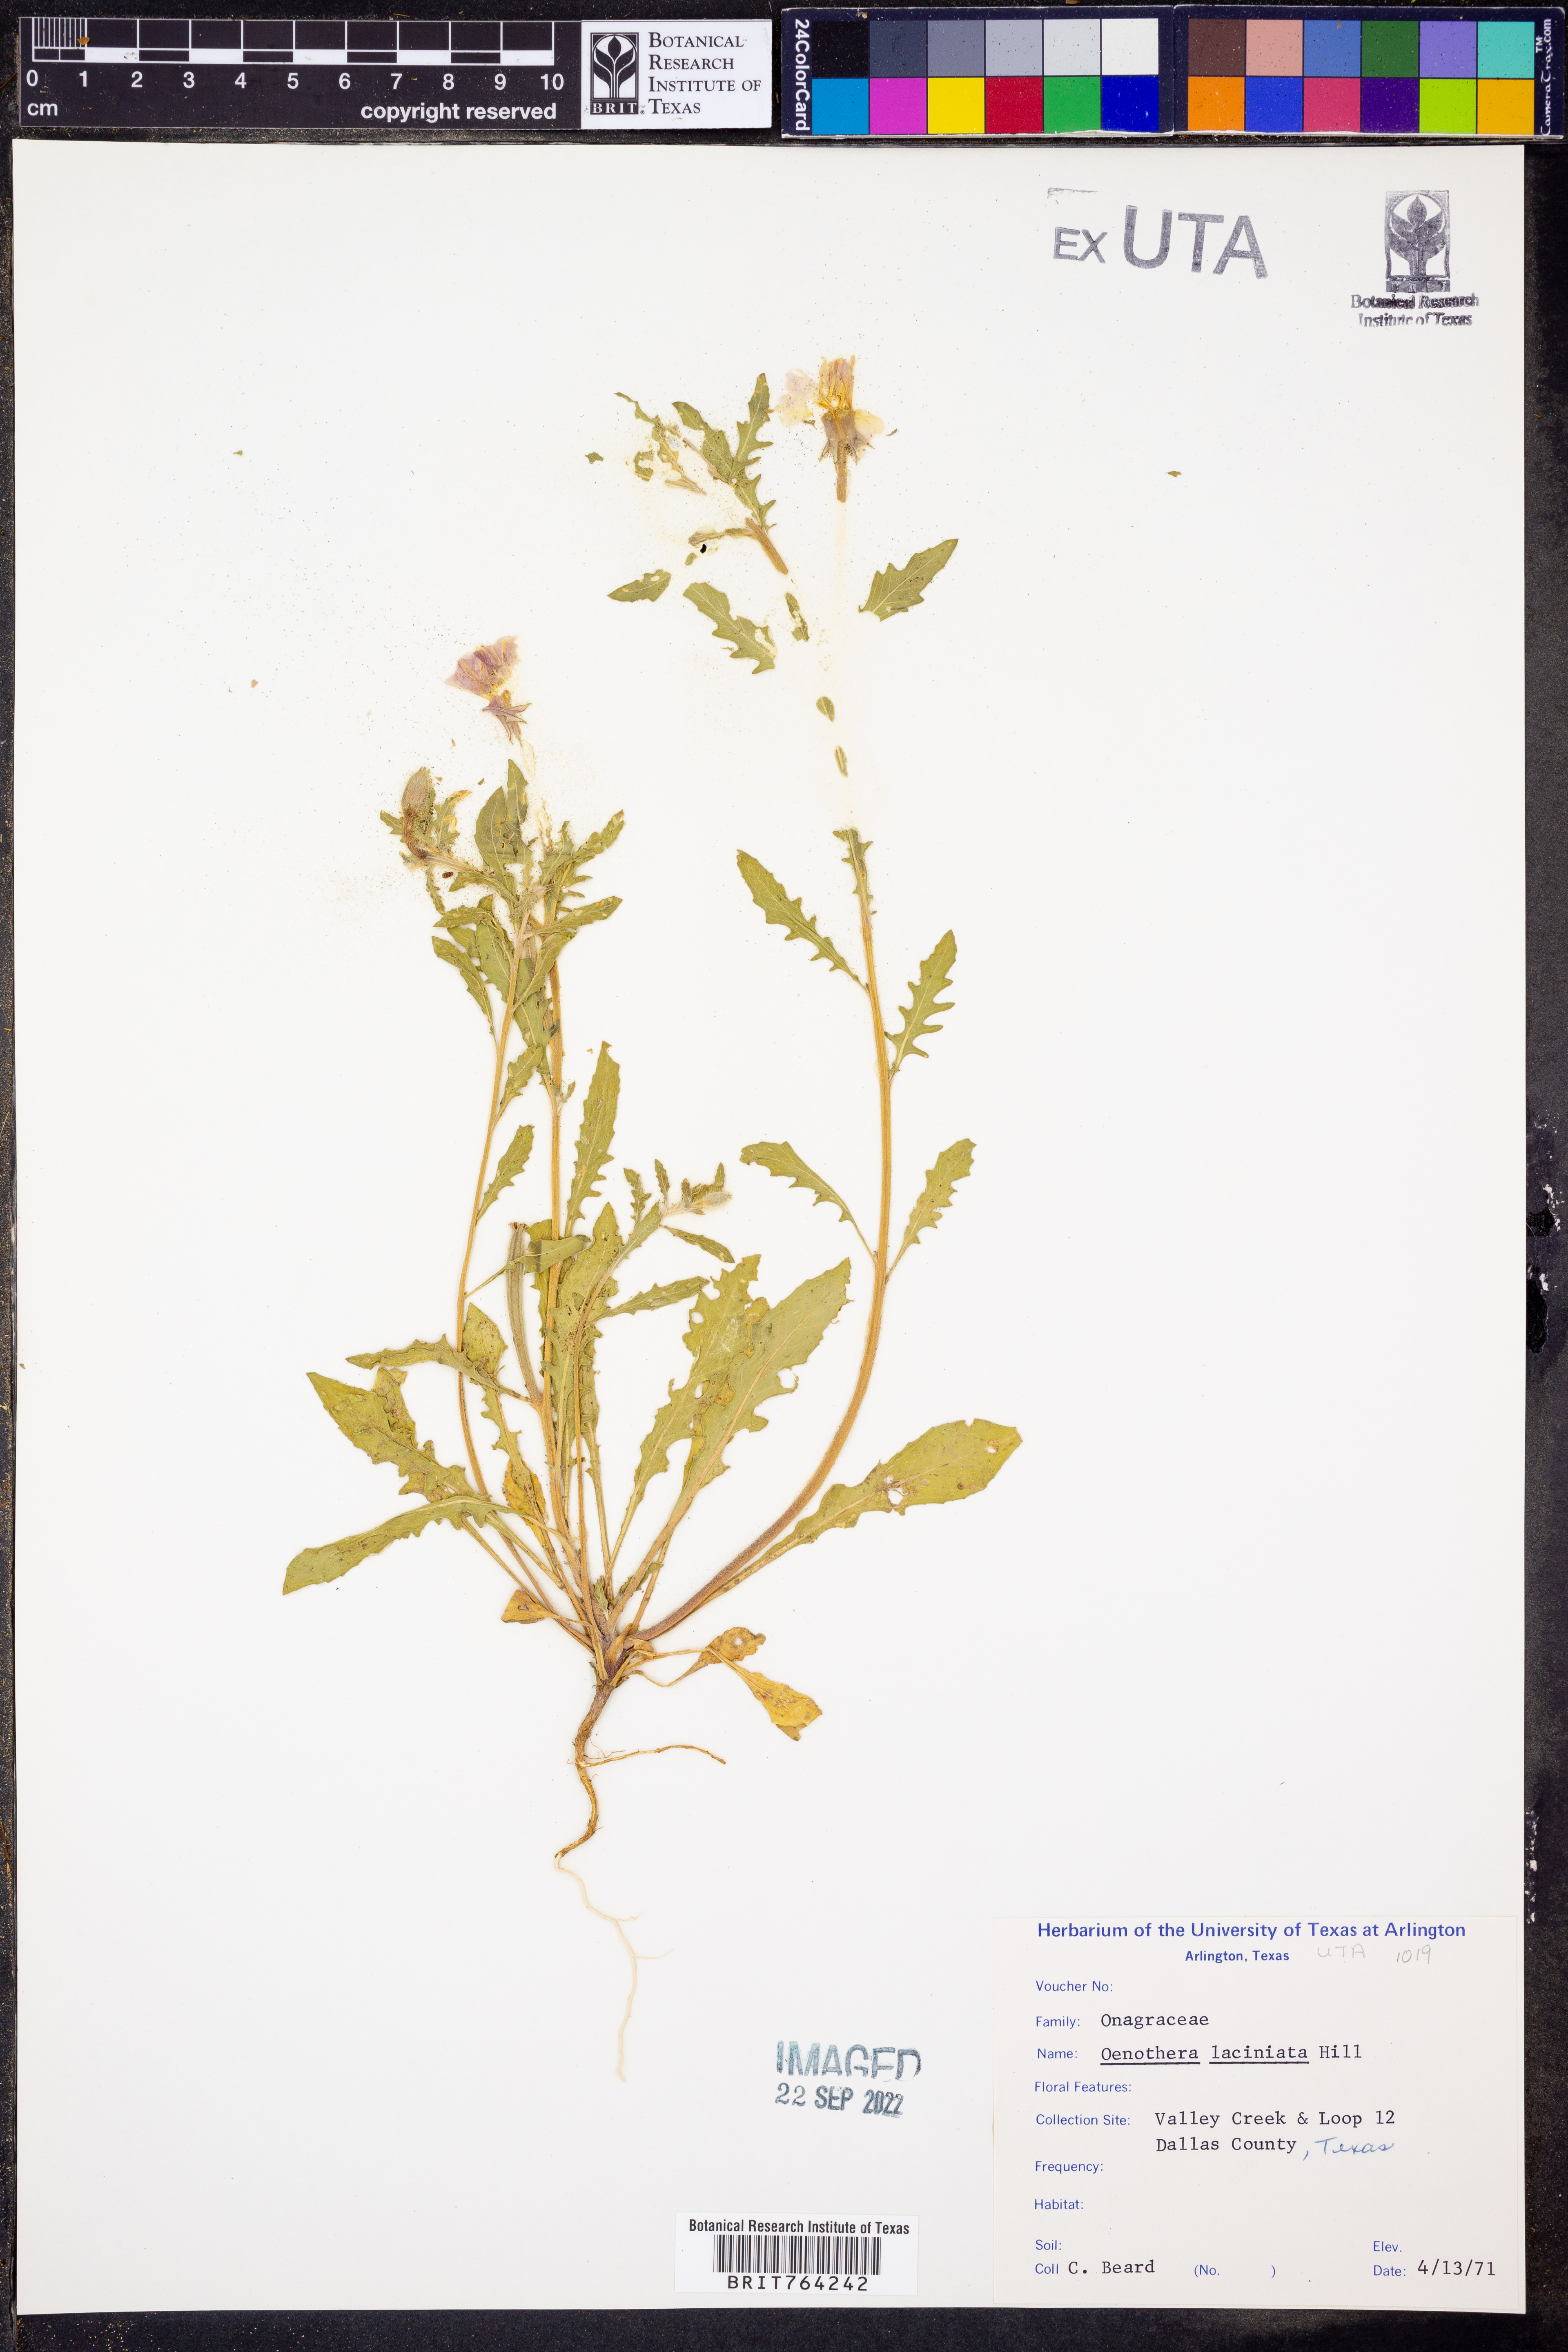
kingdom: Plantae
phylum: Tracheophyta
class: Magnoliopsida
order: Myrtales
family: Onagraceae
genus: Oenothera
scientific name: Oenothera laciniata
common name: Cut-leaved evening-primrose
